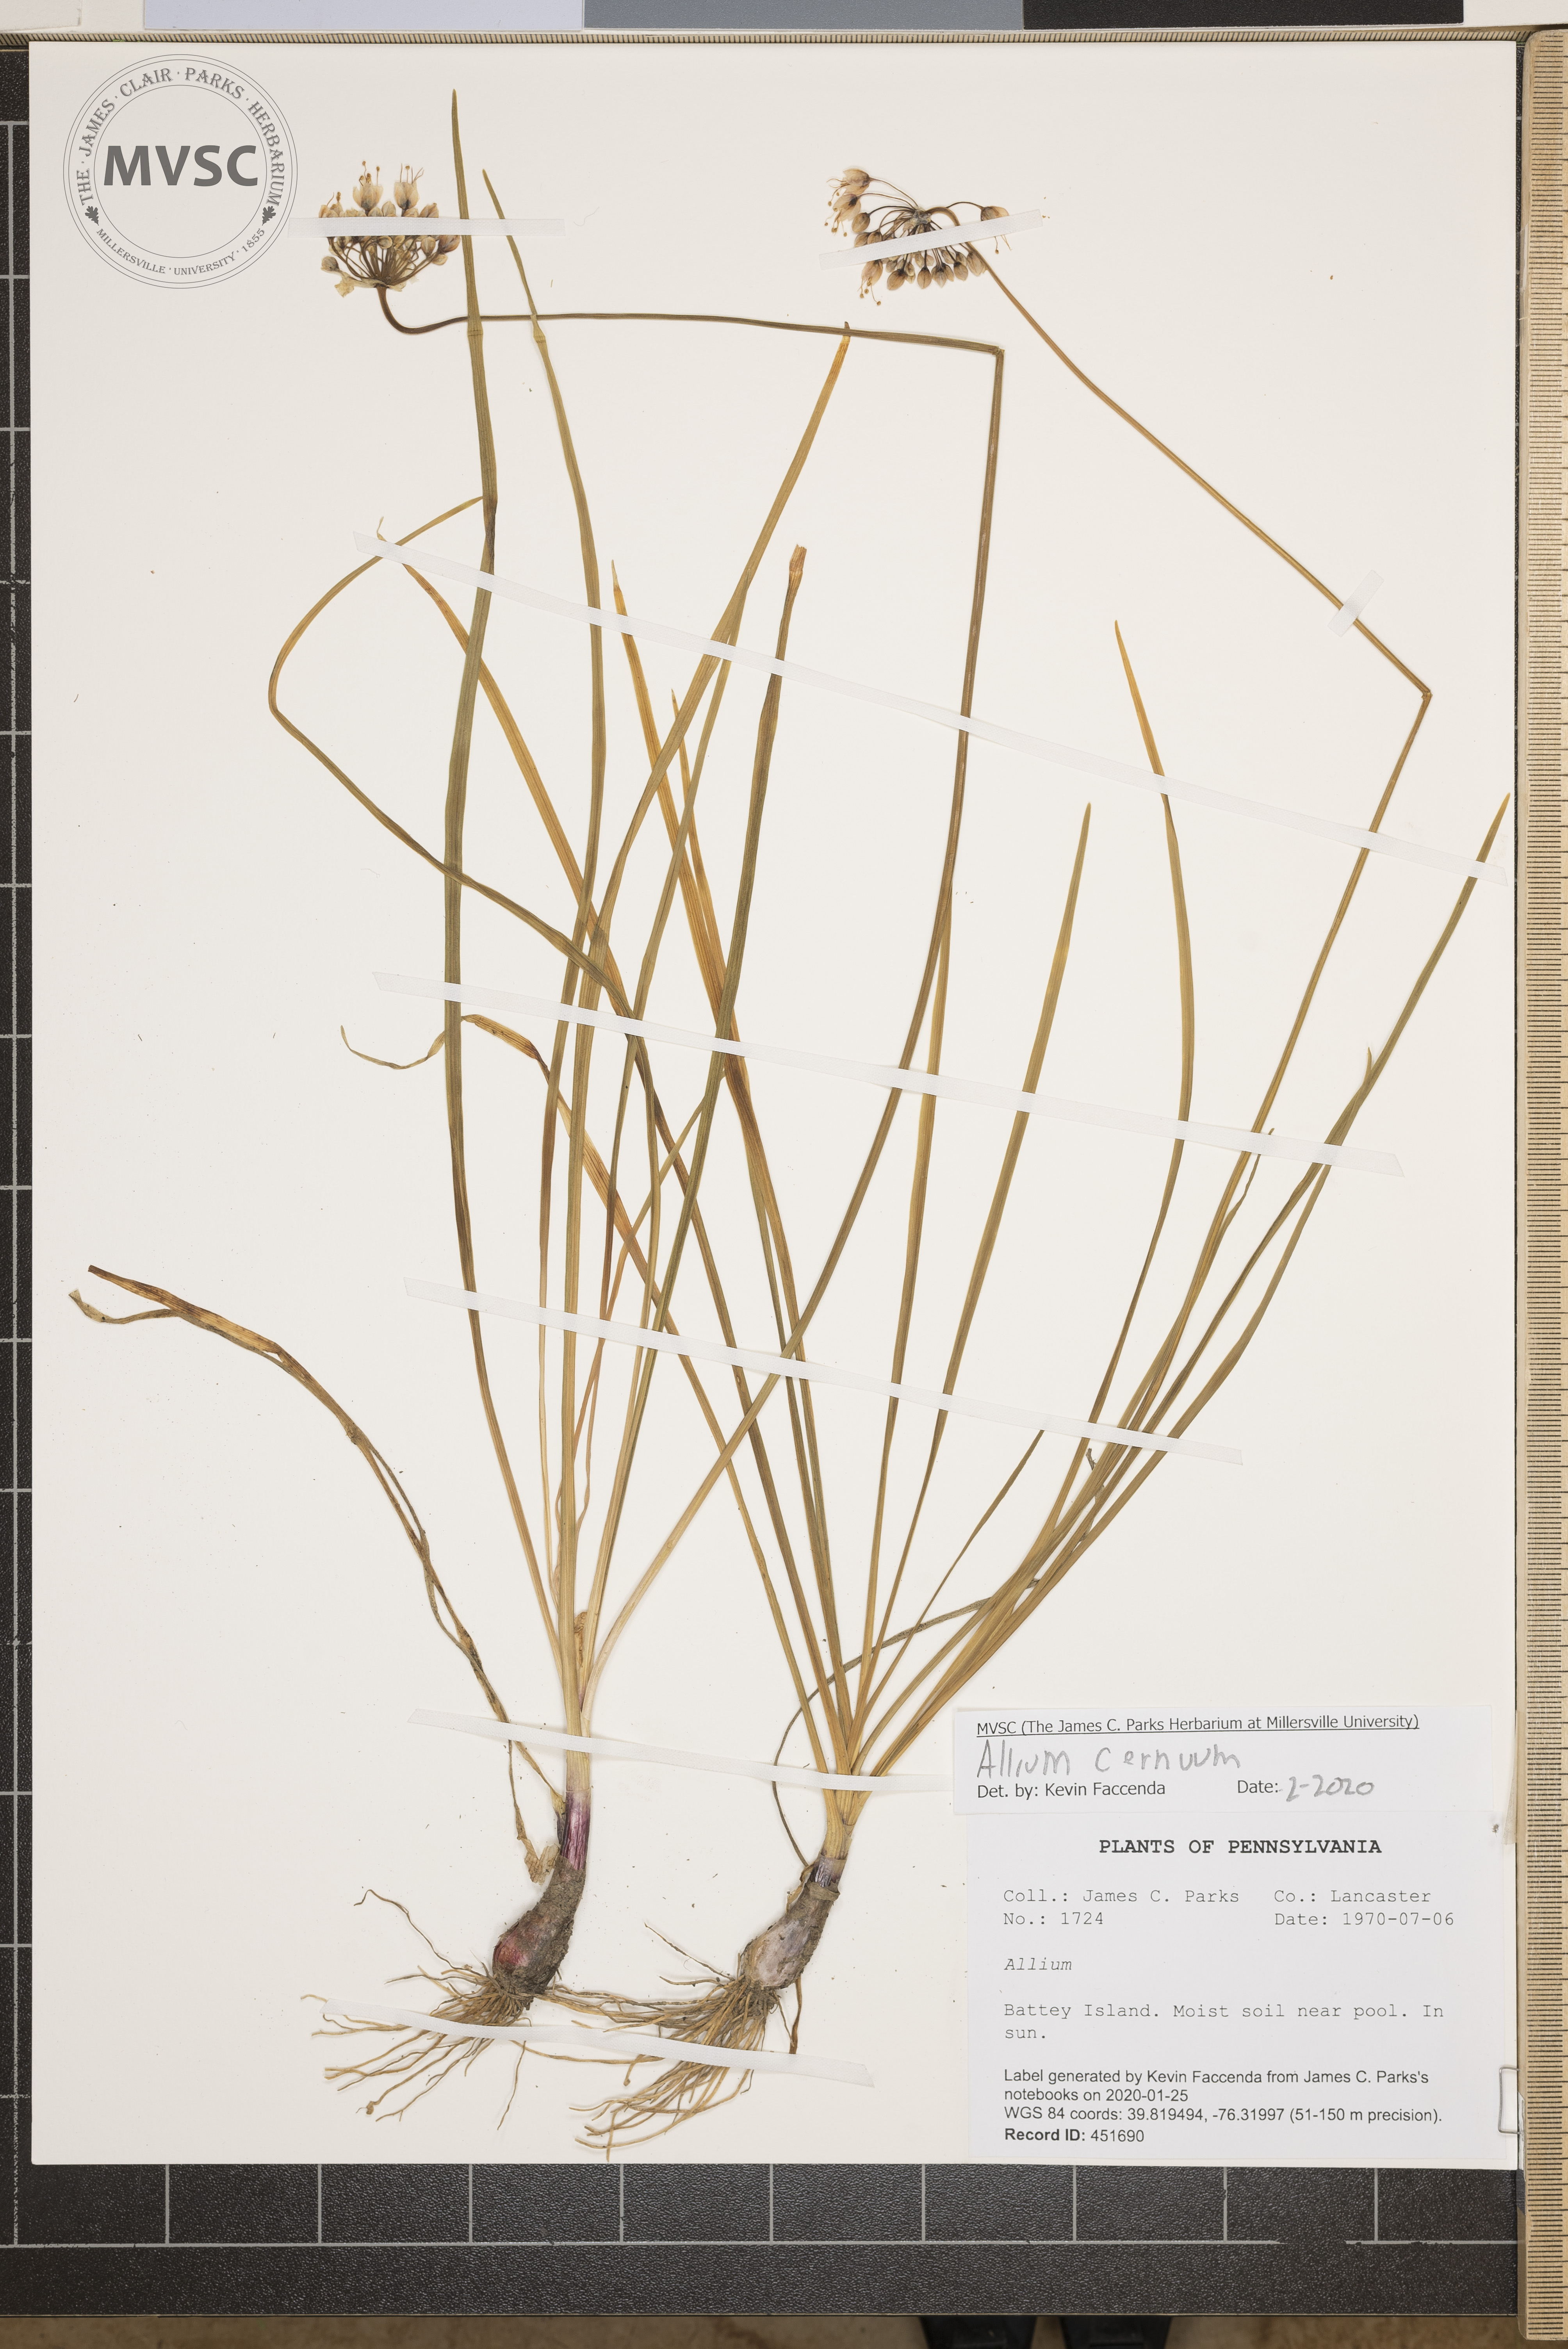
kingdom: Plantae
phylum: Tracheophyta
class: Liliopsida
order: Asparagales
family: Amaryllidaceae
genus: Allium
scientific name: Allium cernuum
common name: Nodding onion
